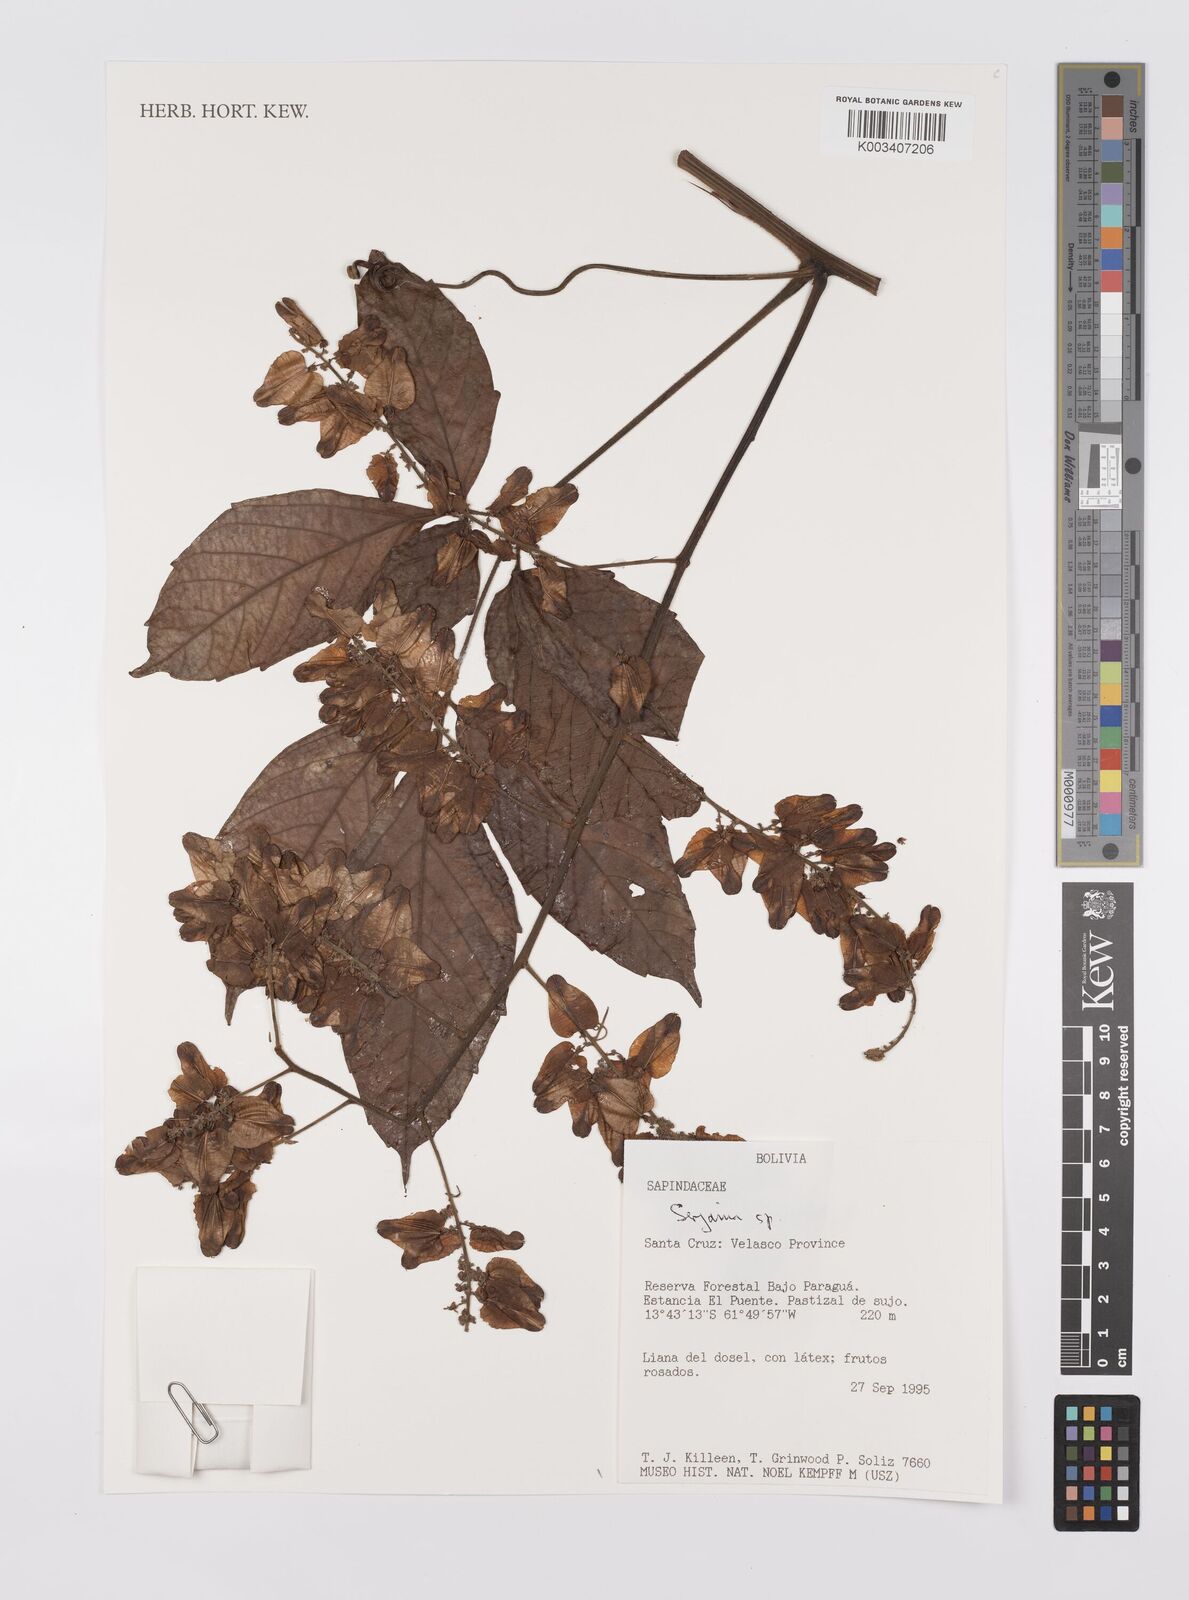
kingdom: Plantae
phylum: Tracheophyta
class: Magnoliopsida
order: Sapindales
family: Sapindaceae
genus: Serjania
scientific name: Serjania
